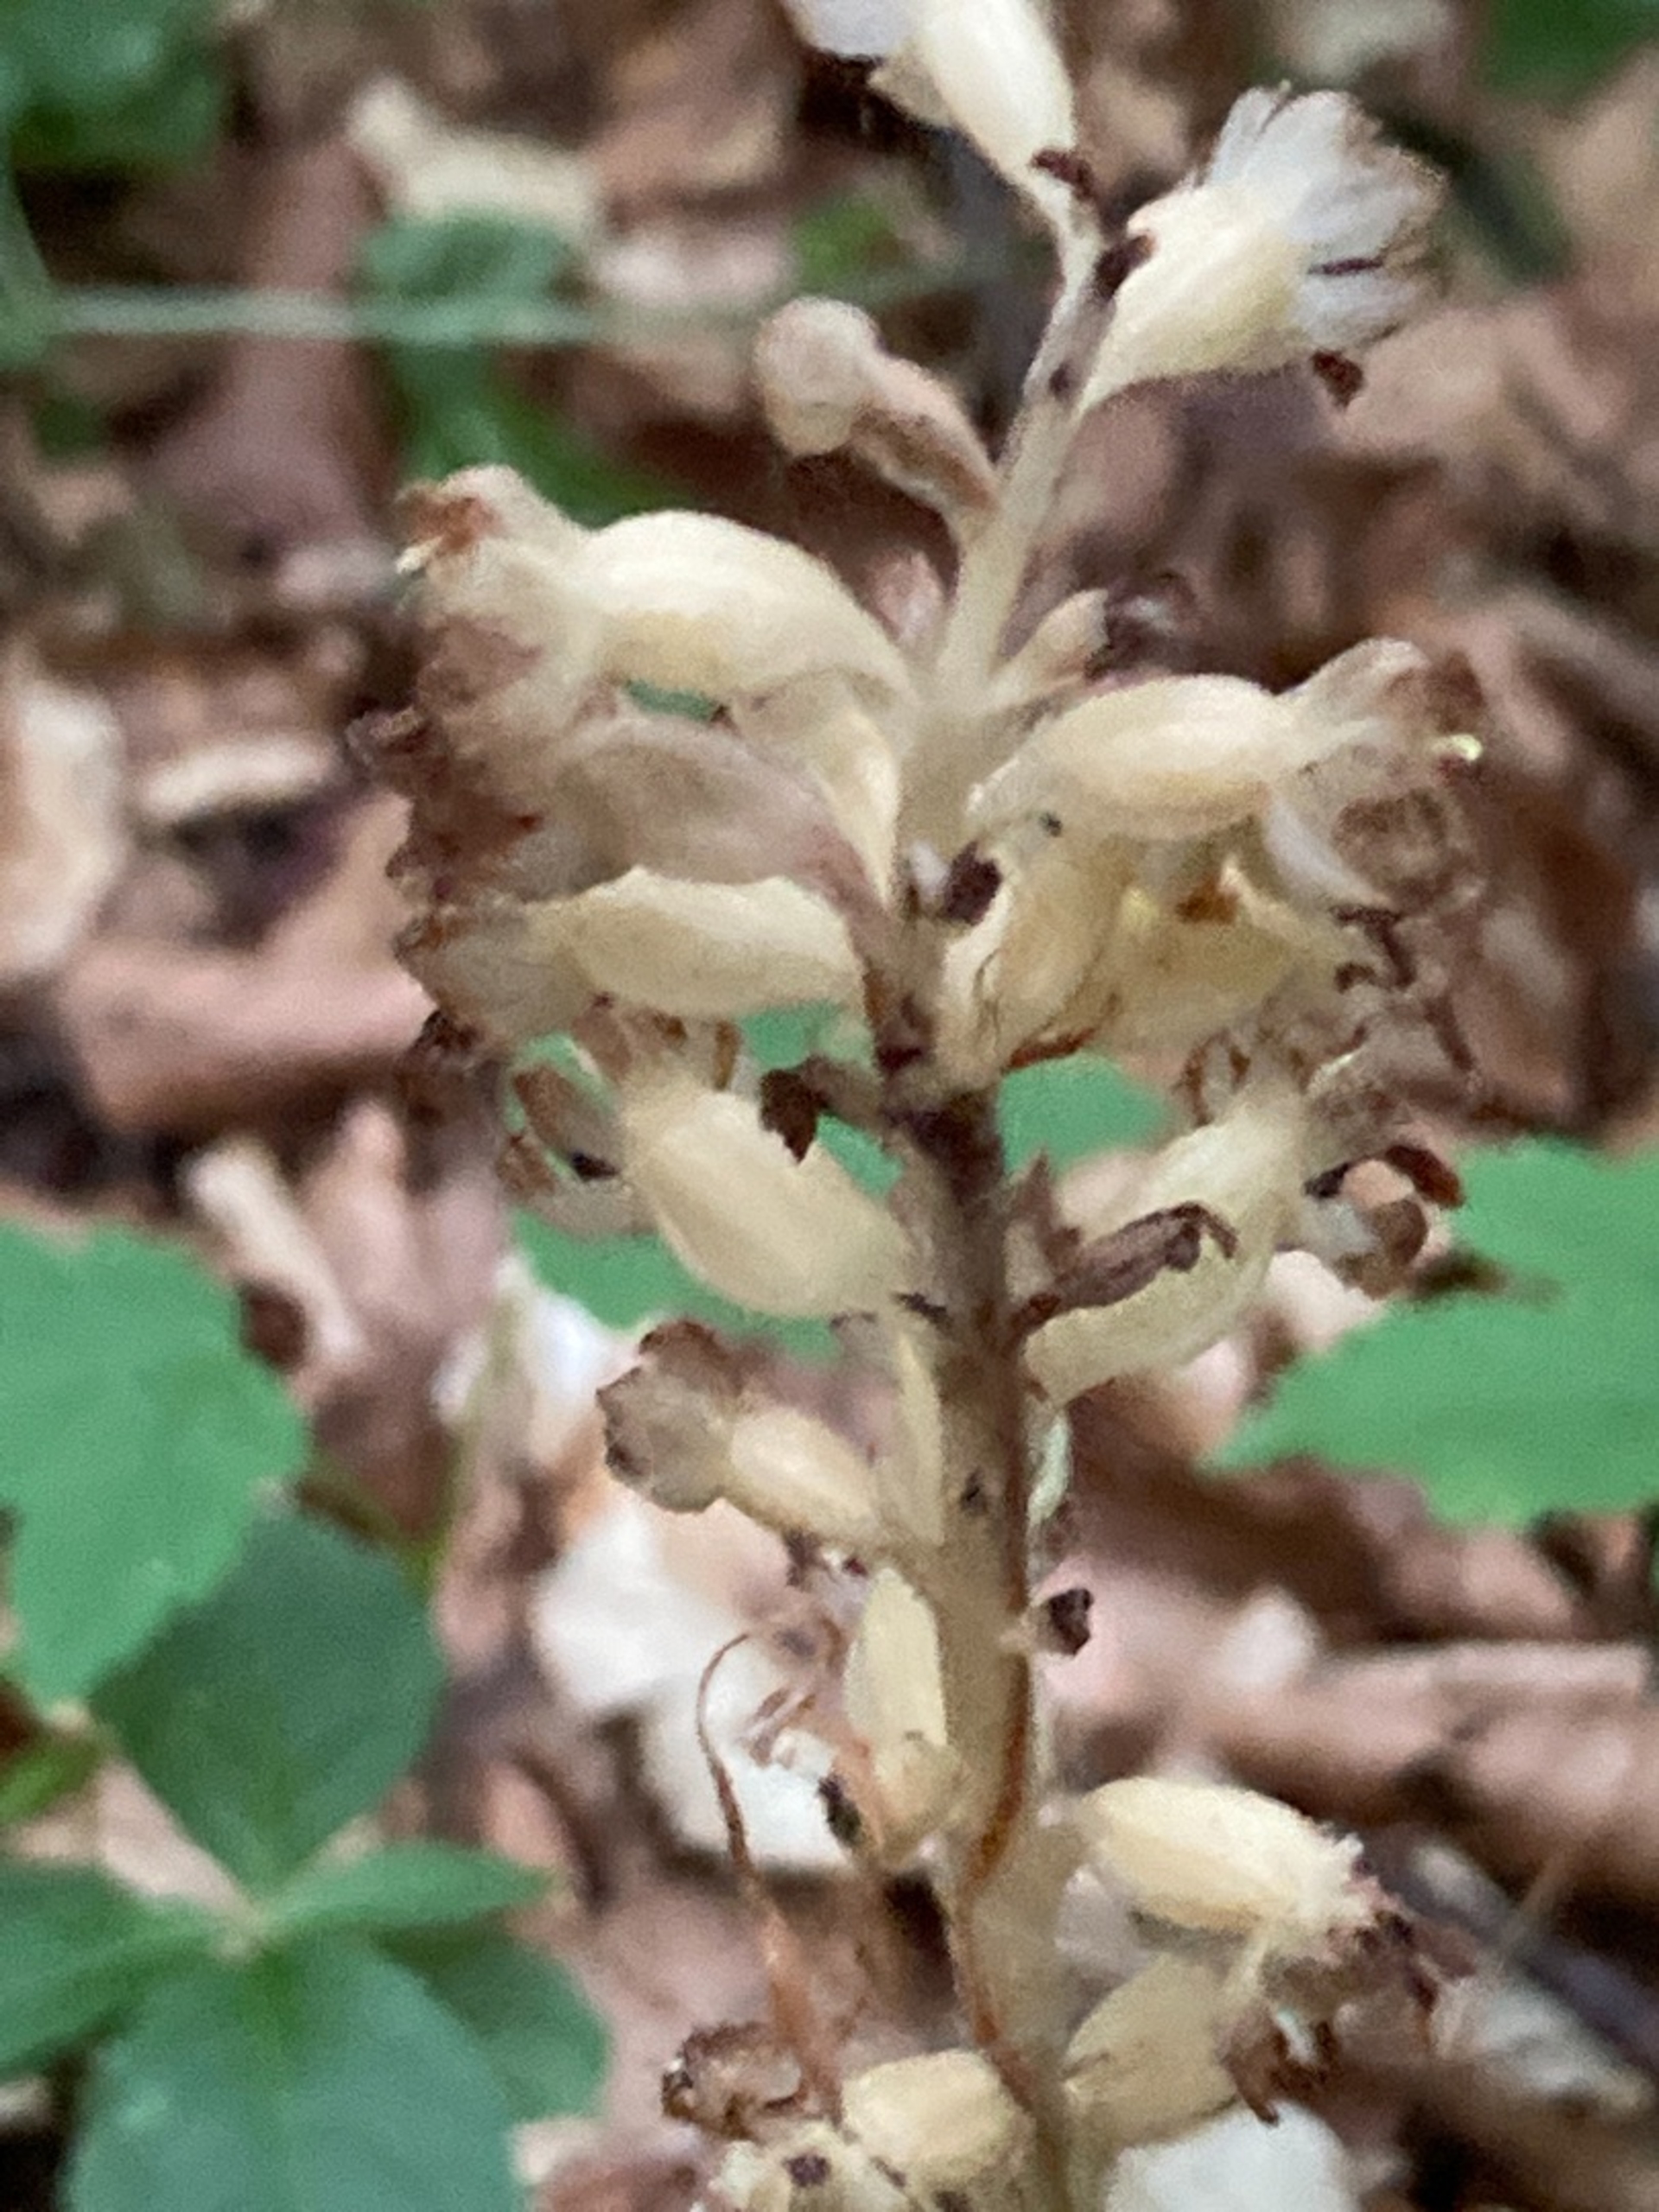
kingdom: Plantae
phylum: Tracheophyta
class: Liliopsida
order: Asparagales
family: Orchidaceae
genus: Neottia
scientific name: Neottia nidus-avis
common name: Rederod
